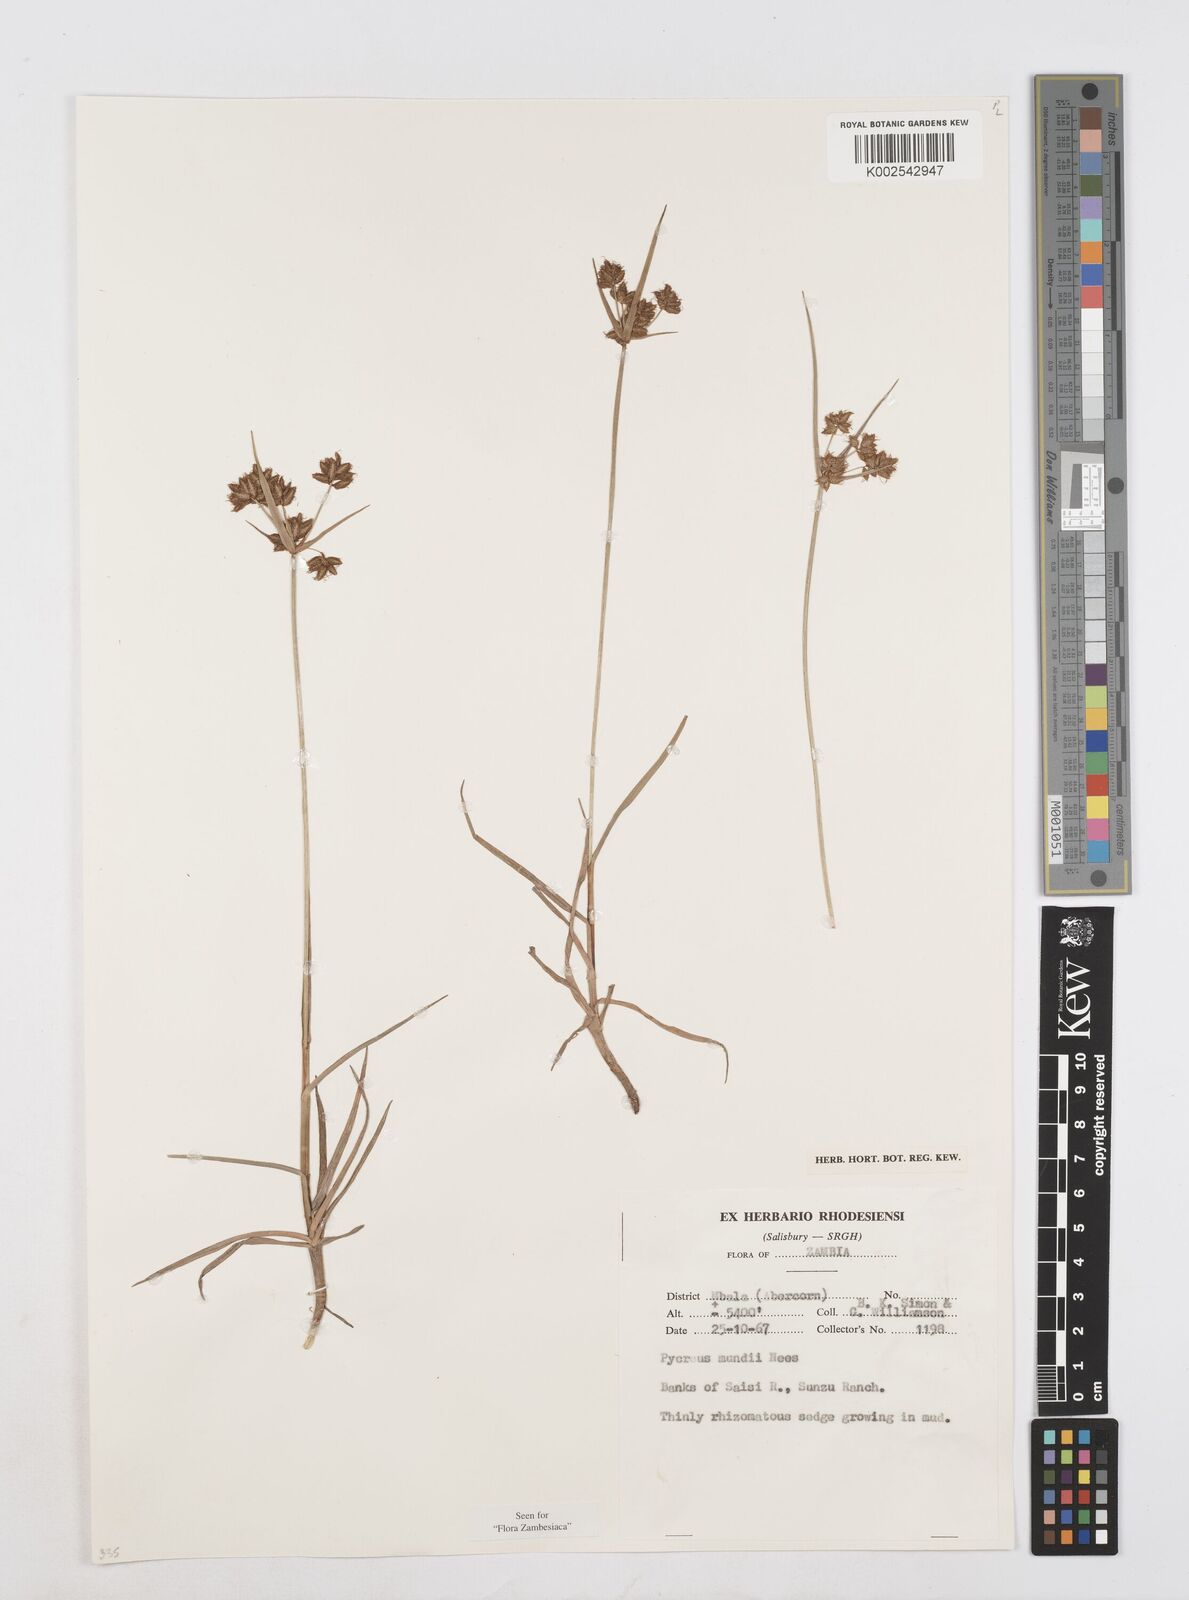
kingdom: Plantae
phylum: Tracheophyta
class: Liliopsida
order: Poales
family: Cyperaceae
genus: Cyperus
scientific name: Cyperus mundii
